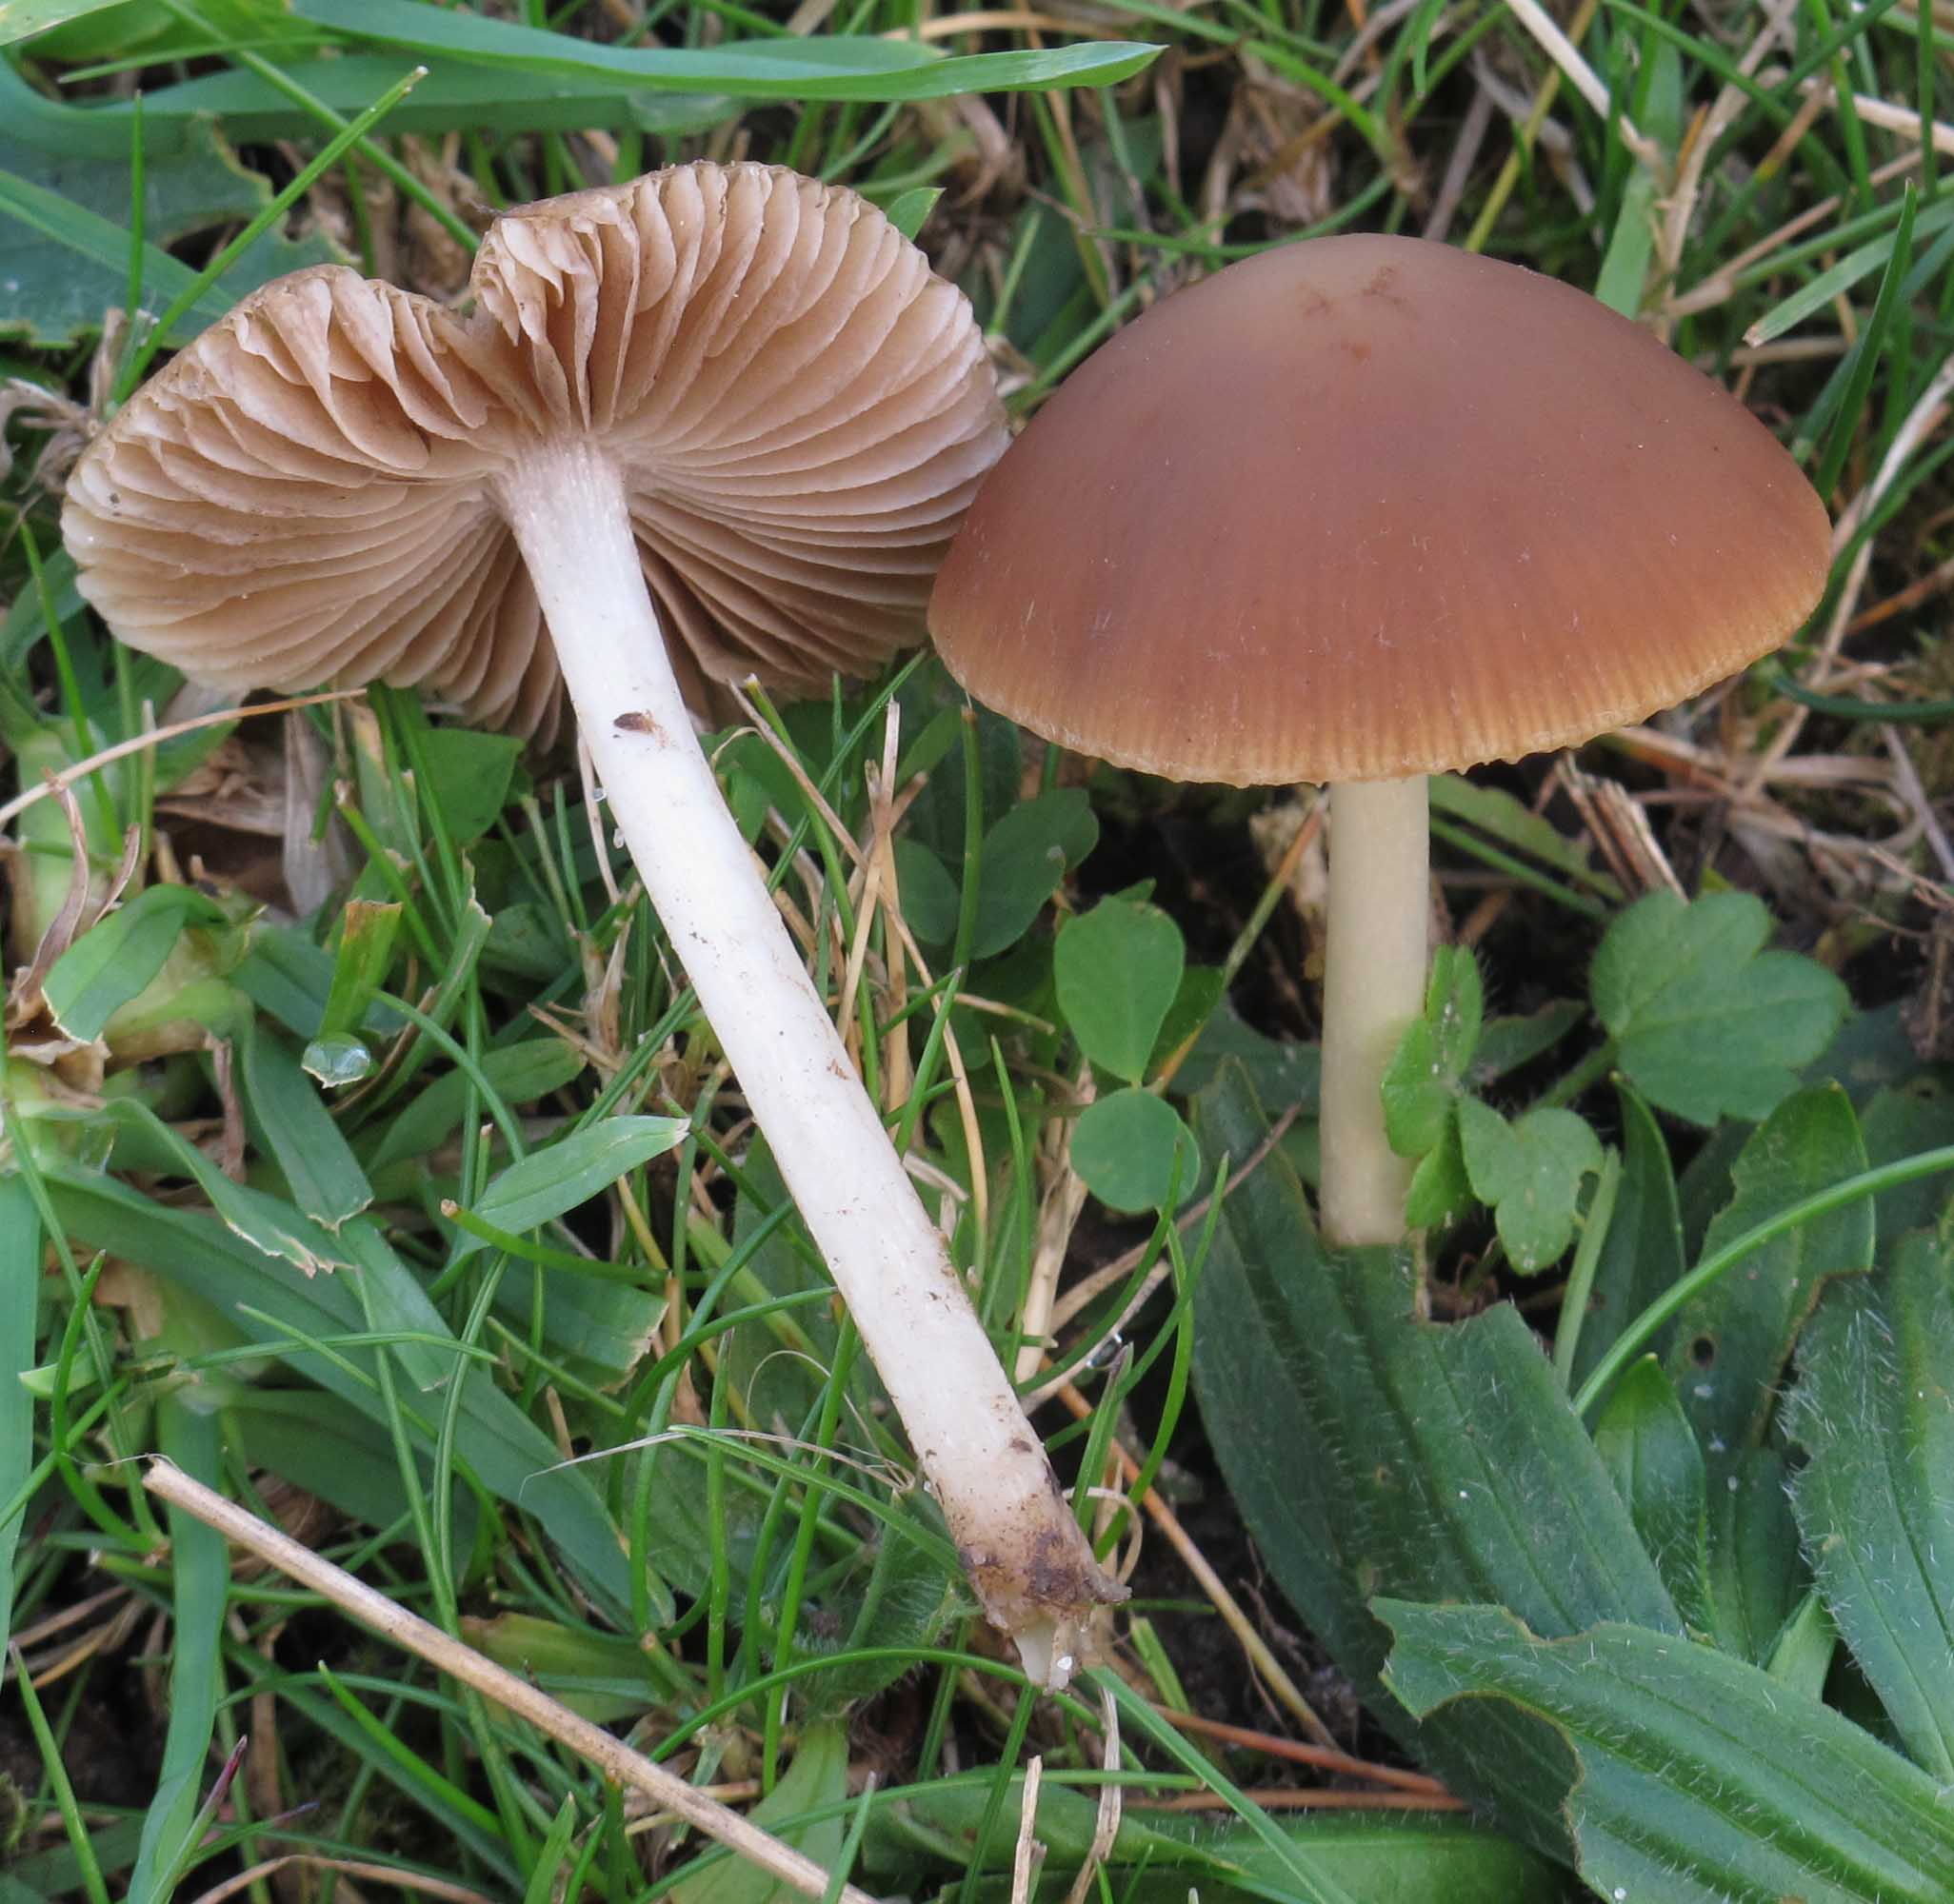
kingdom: Fungi
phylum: Basidiomycota
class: Agaricomycetes
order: Agaricales
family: Psathyrellaceae
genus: Psathyrella
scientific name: Psathyrella clivensis
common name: eng-mørkhat
